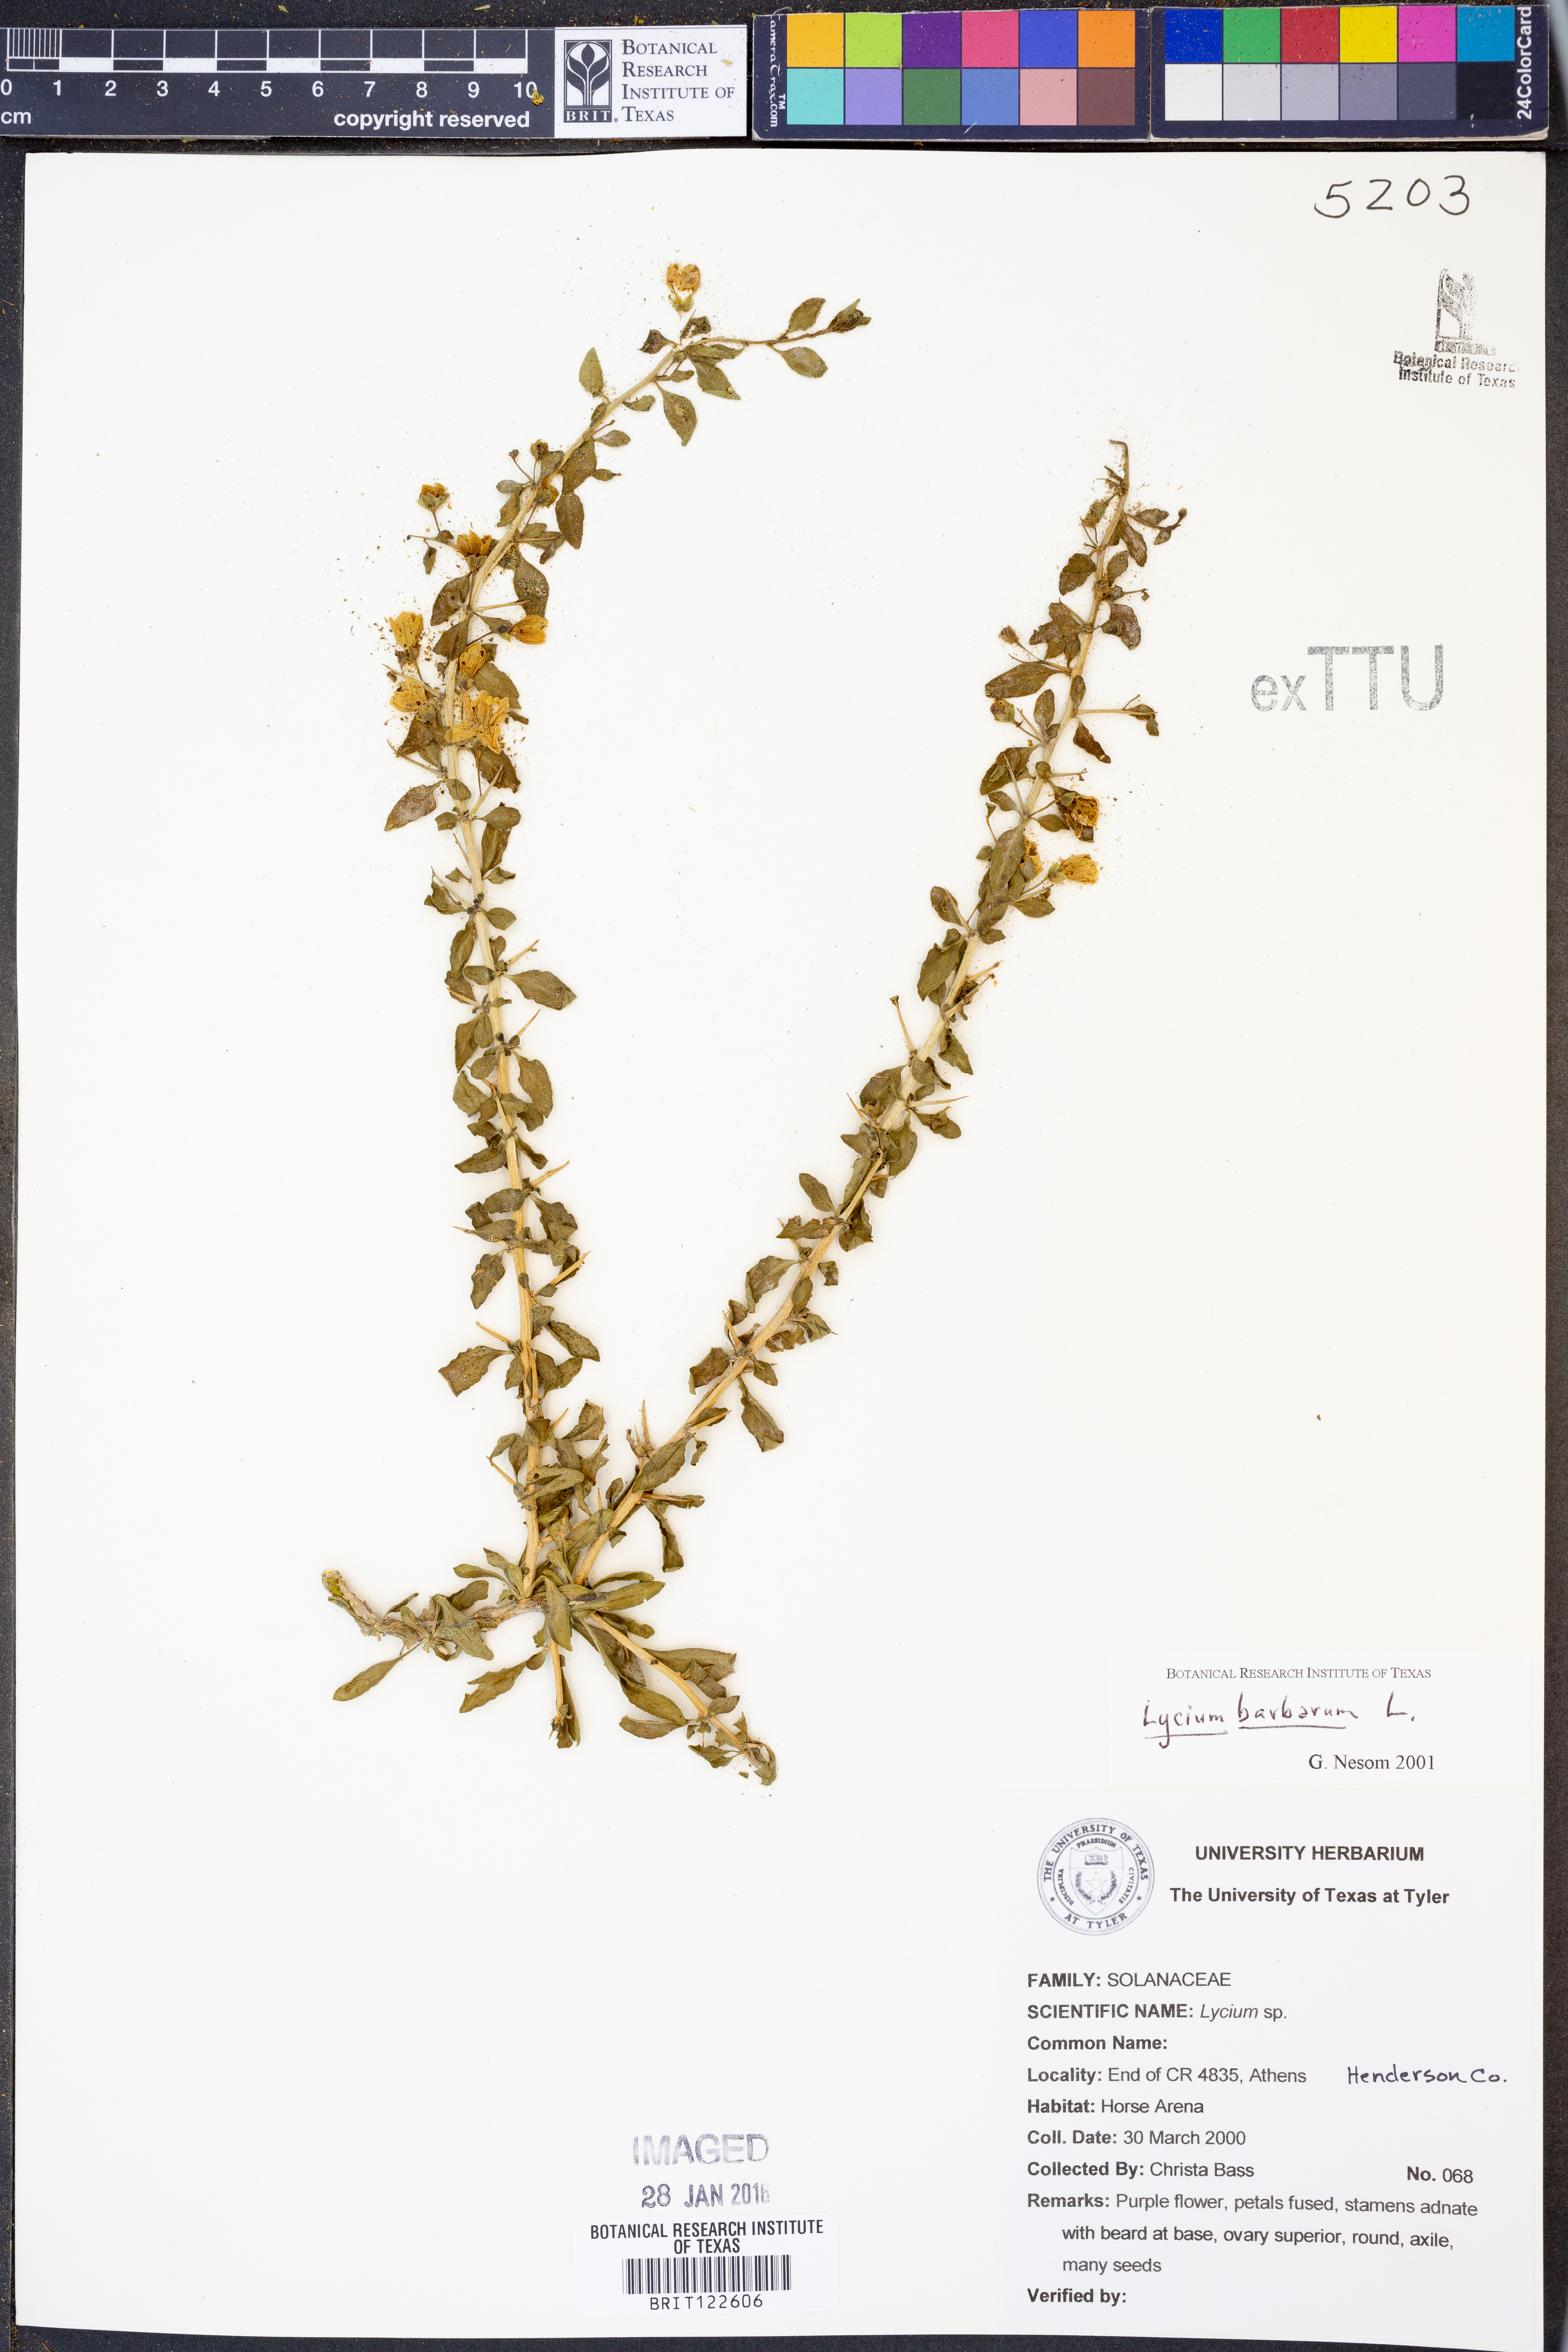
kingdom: Plantae
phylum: Tracheophyta
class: Magnoliopsida
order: Solanales
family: Solanaceae
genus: Lycium
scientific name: Lycium barbarum
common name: Duke of argyll's teaplant
